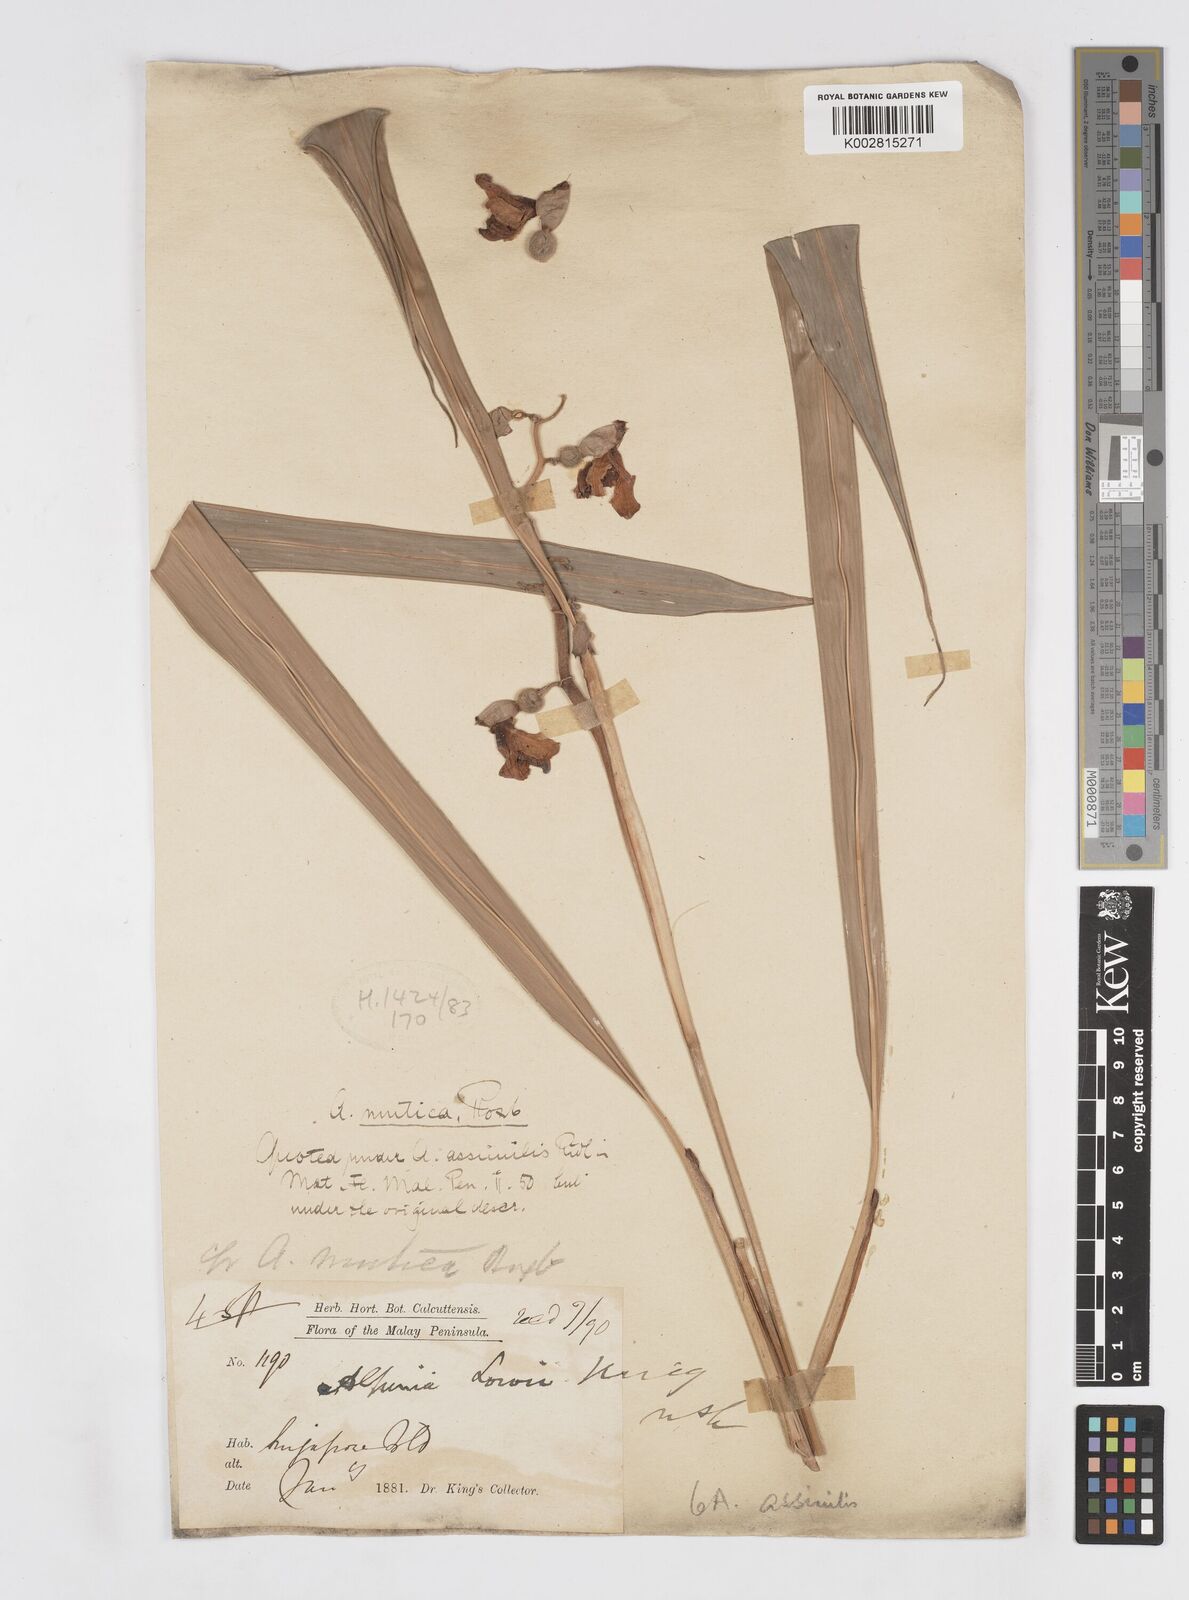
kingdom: Plantae
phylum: Tracheophyta
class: Liliopsida
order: Zingiberales
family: Zingiberaceae
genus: Alpinia
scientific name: Alpinia assimilis
